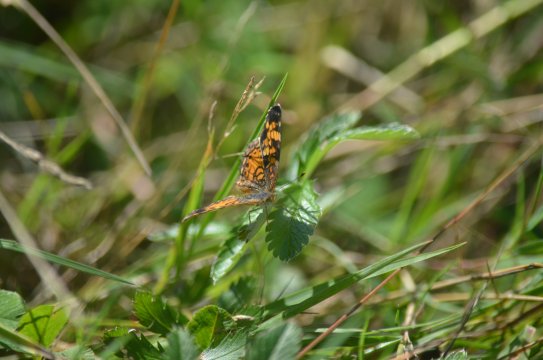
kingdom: Animalia
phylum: Arthropoda
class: Insecta
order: Lepidoptera
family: Nymphalidae
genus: Phyciodes
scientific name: Phyciodes tharos
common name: Northern Crescent
